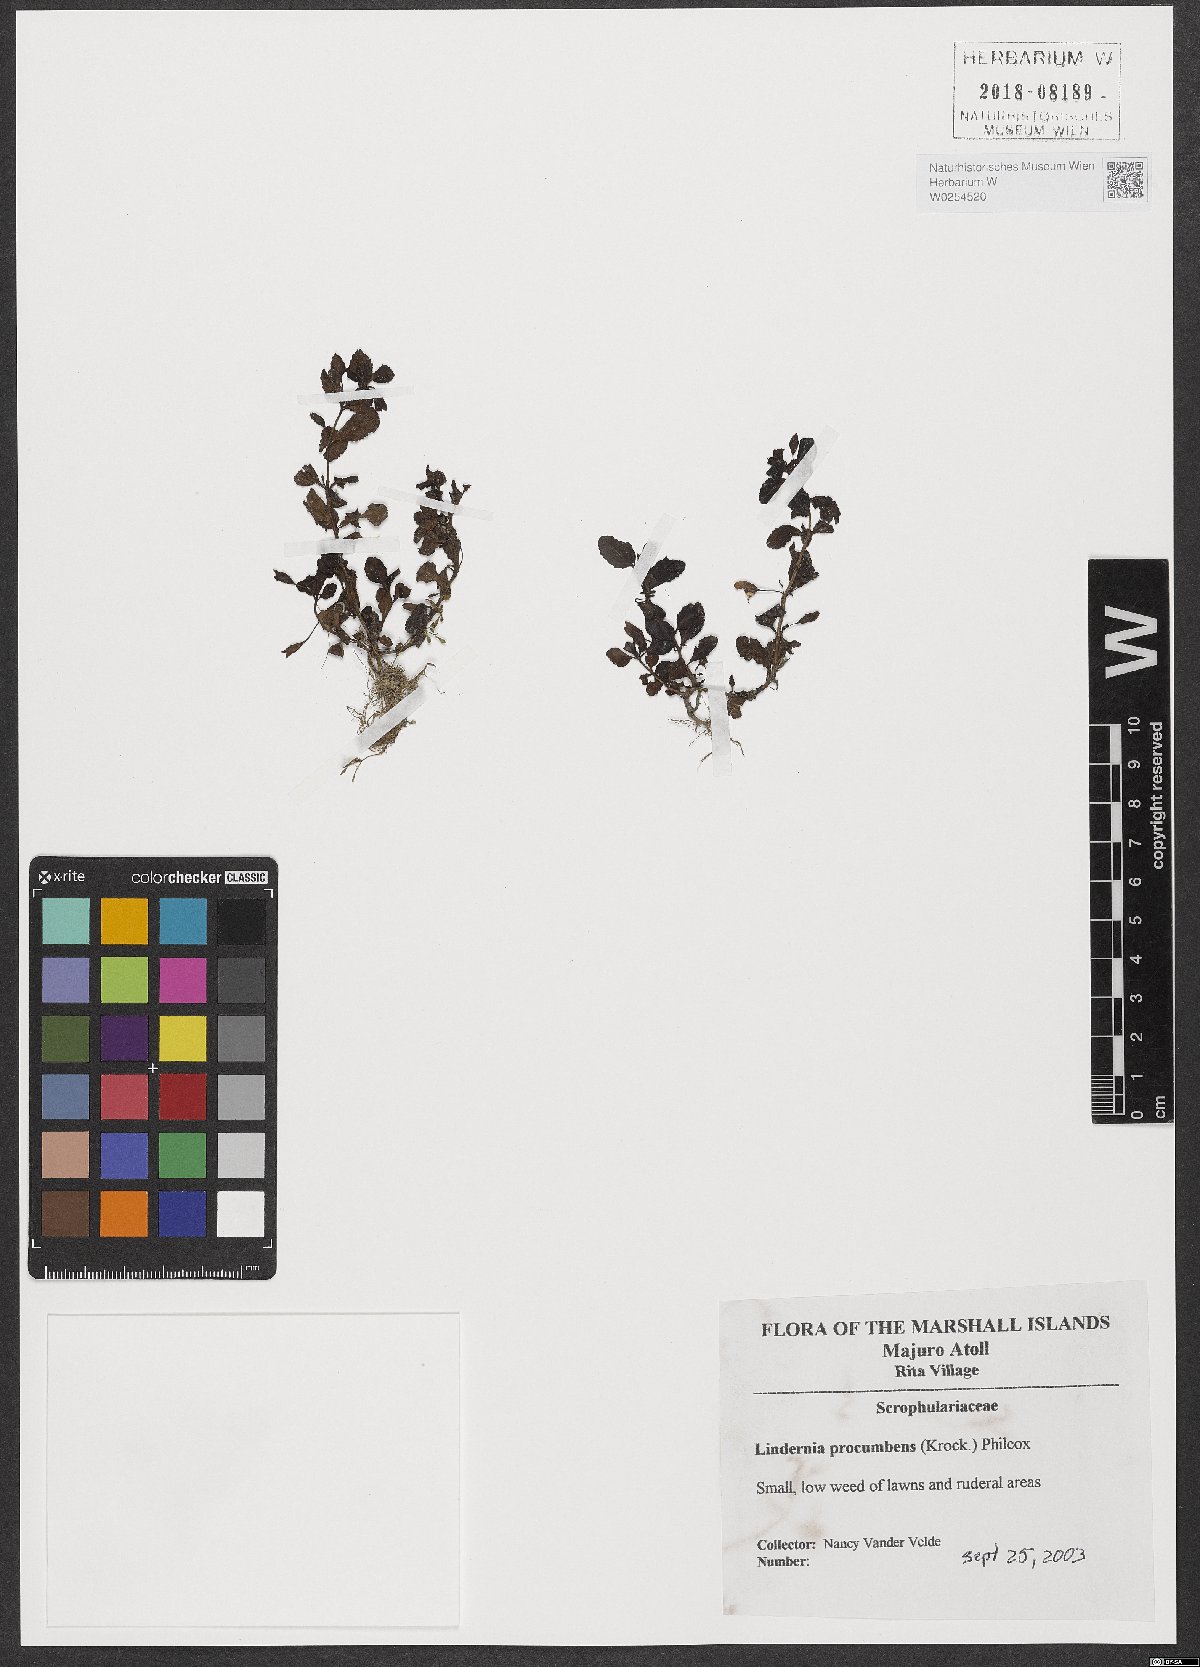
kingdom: Plantae
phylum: Tracheophyta
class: Magnoliopsida
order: Lamiales
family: Linderniaceae
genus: Lindernia
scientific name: Lindernia procumbens
